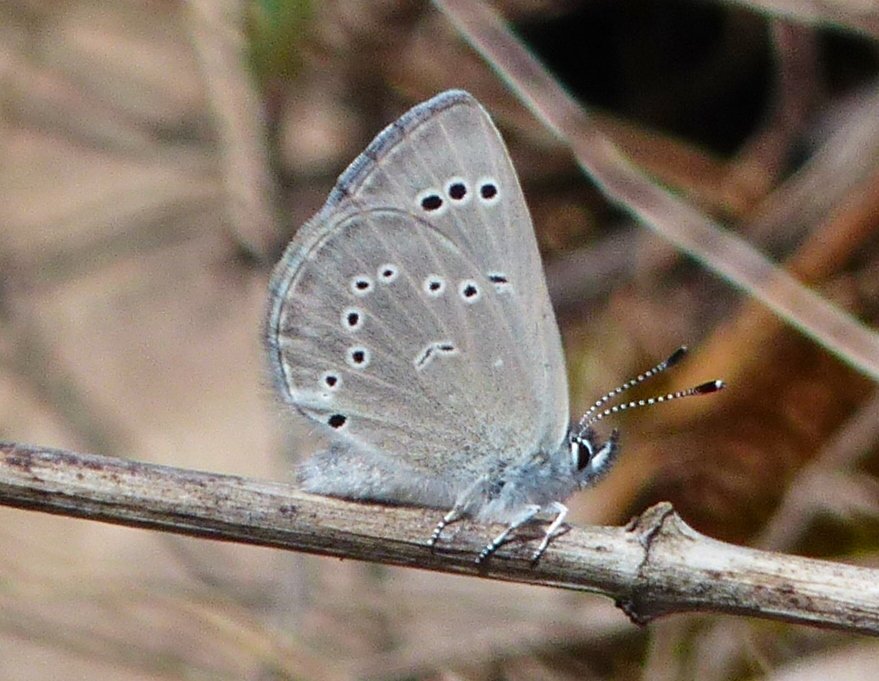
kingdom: Animalia
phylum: Arthropoda
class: Insecta
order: Lepidoptera
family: Lycaenidae
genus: Glaucopsyche
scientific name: Glaucopsyche lygdamus
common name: Silvery Blue
